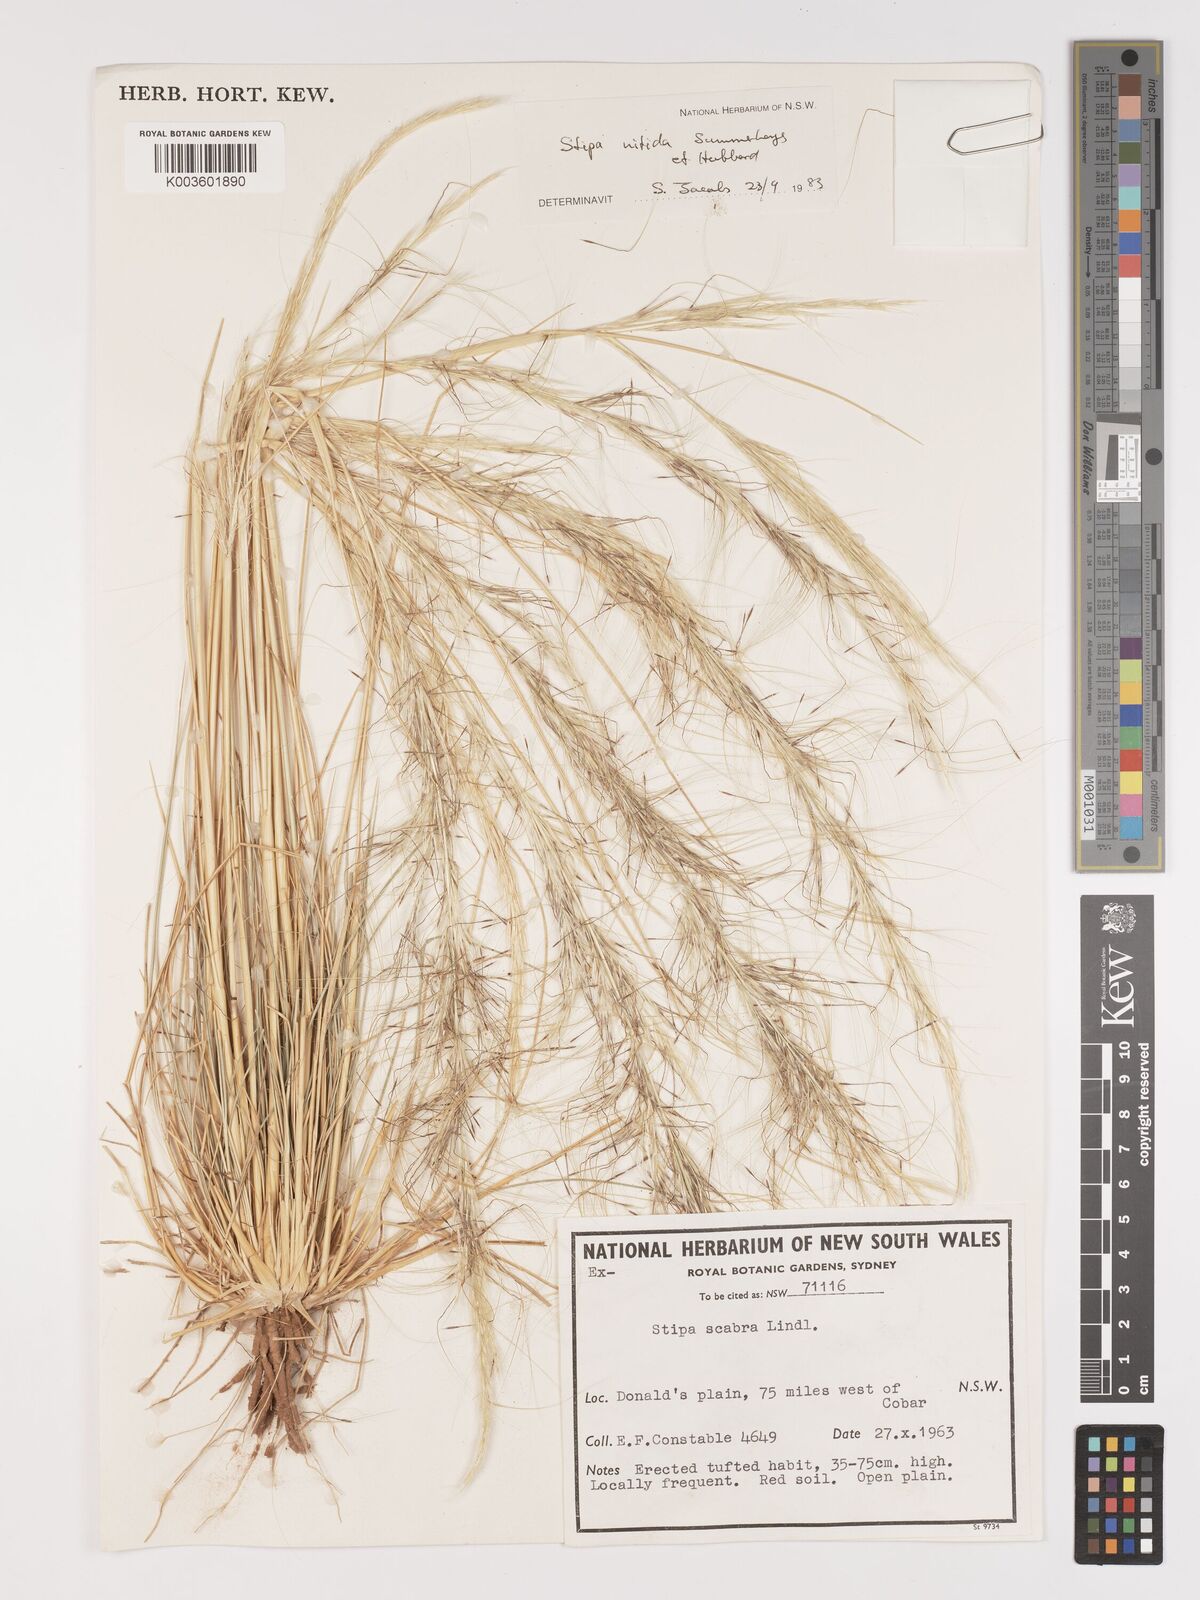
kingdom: Plantae
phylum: Tracheophyta
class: Liliopsida
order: Poales
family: Poaceae
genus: Austrostipa
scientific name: Austrostipa nitida
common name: Balcarra grass
